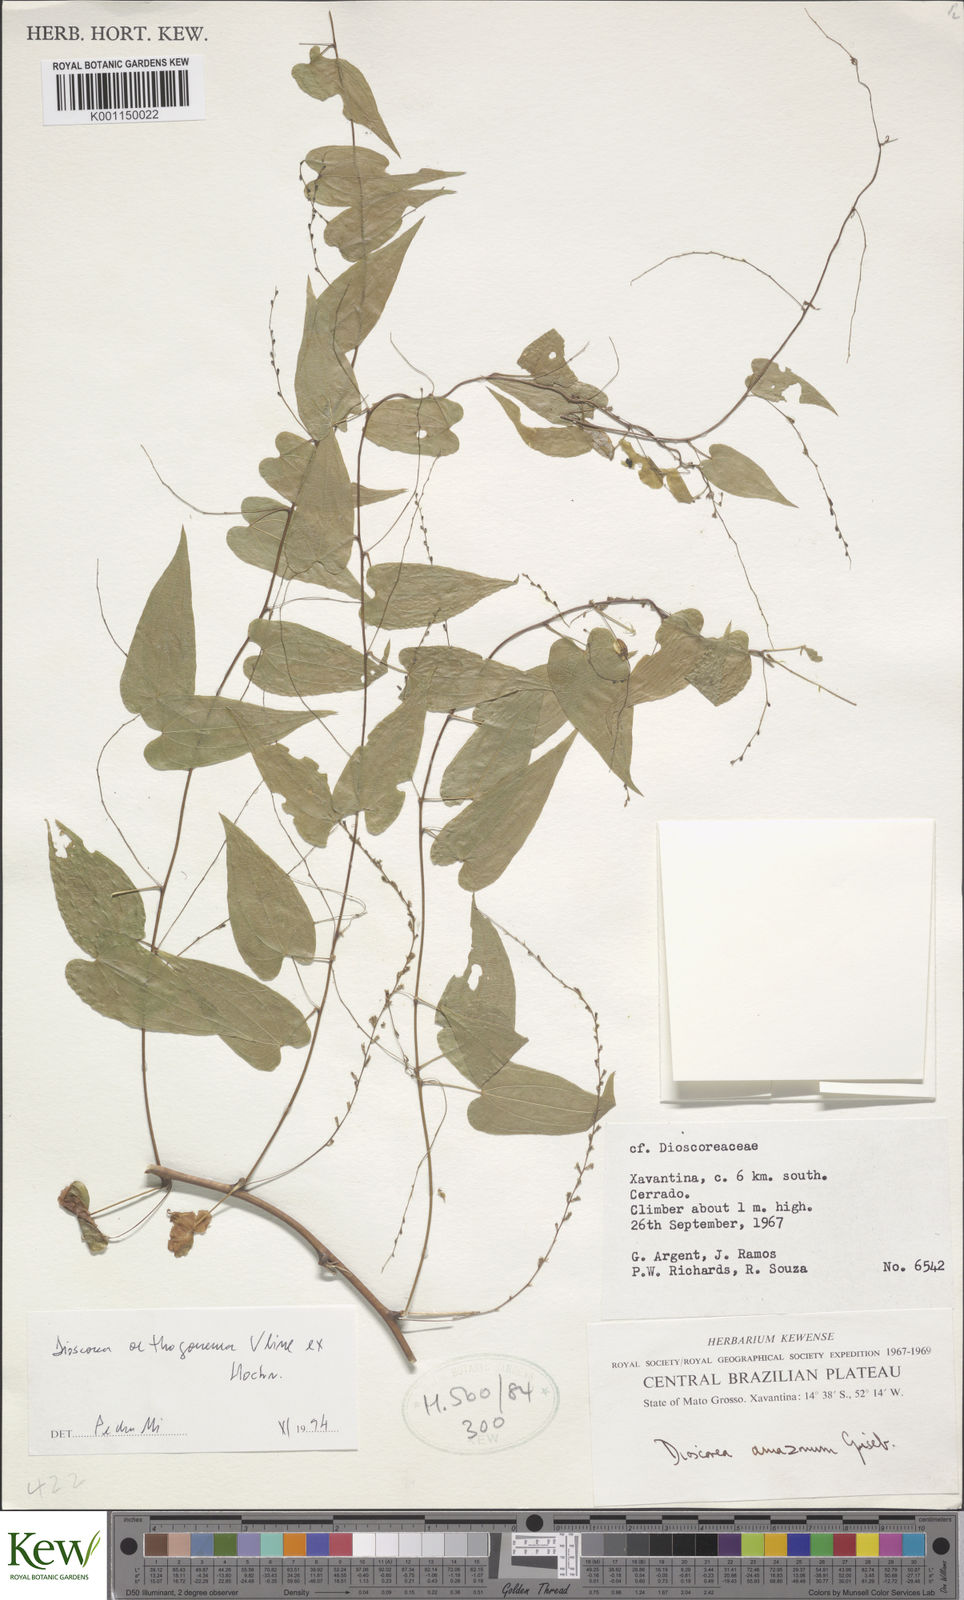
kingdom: Plantae
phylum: Tracheophyta
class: Liliopsida
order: Dioscoreales
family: Dioscoreaceae
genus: Dioscorea
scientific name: Dioscorea orthogoneura
